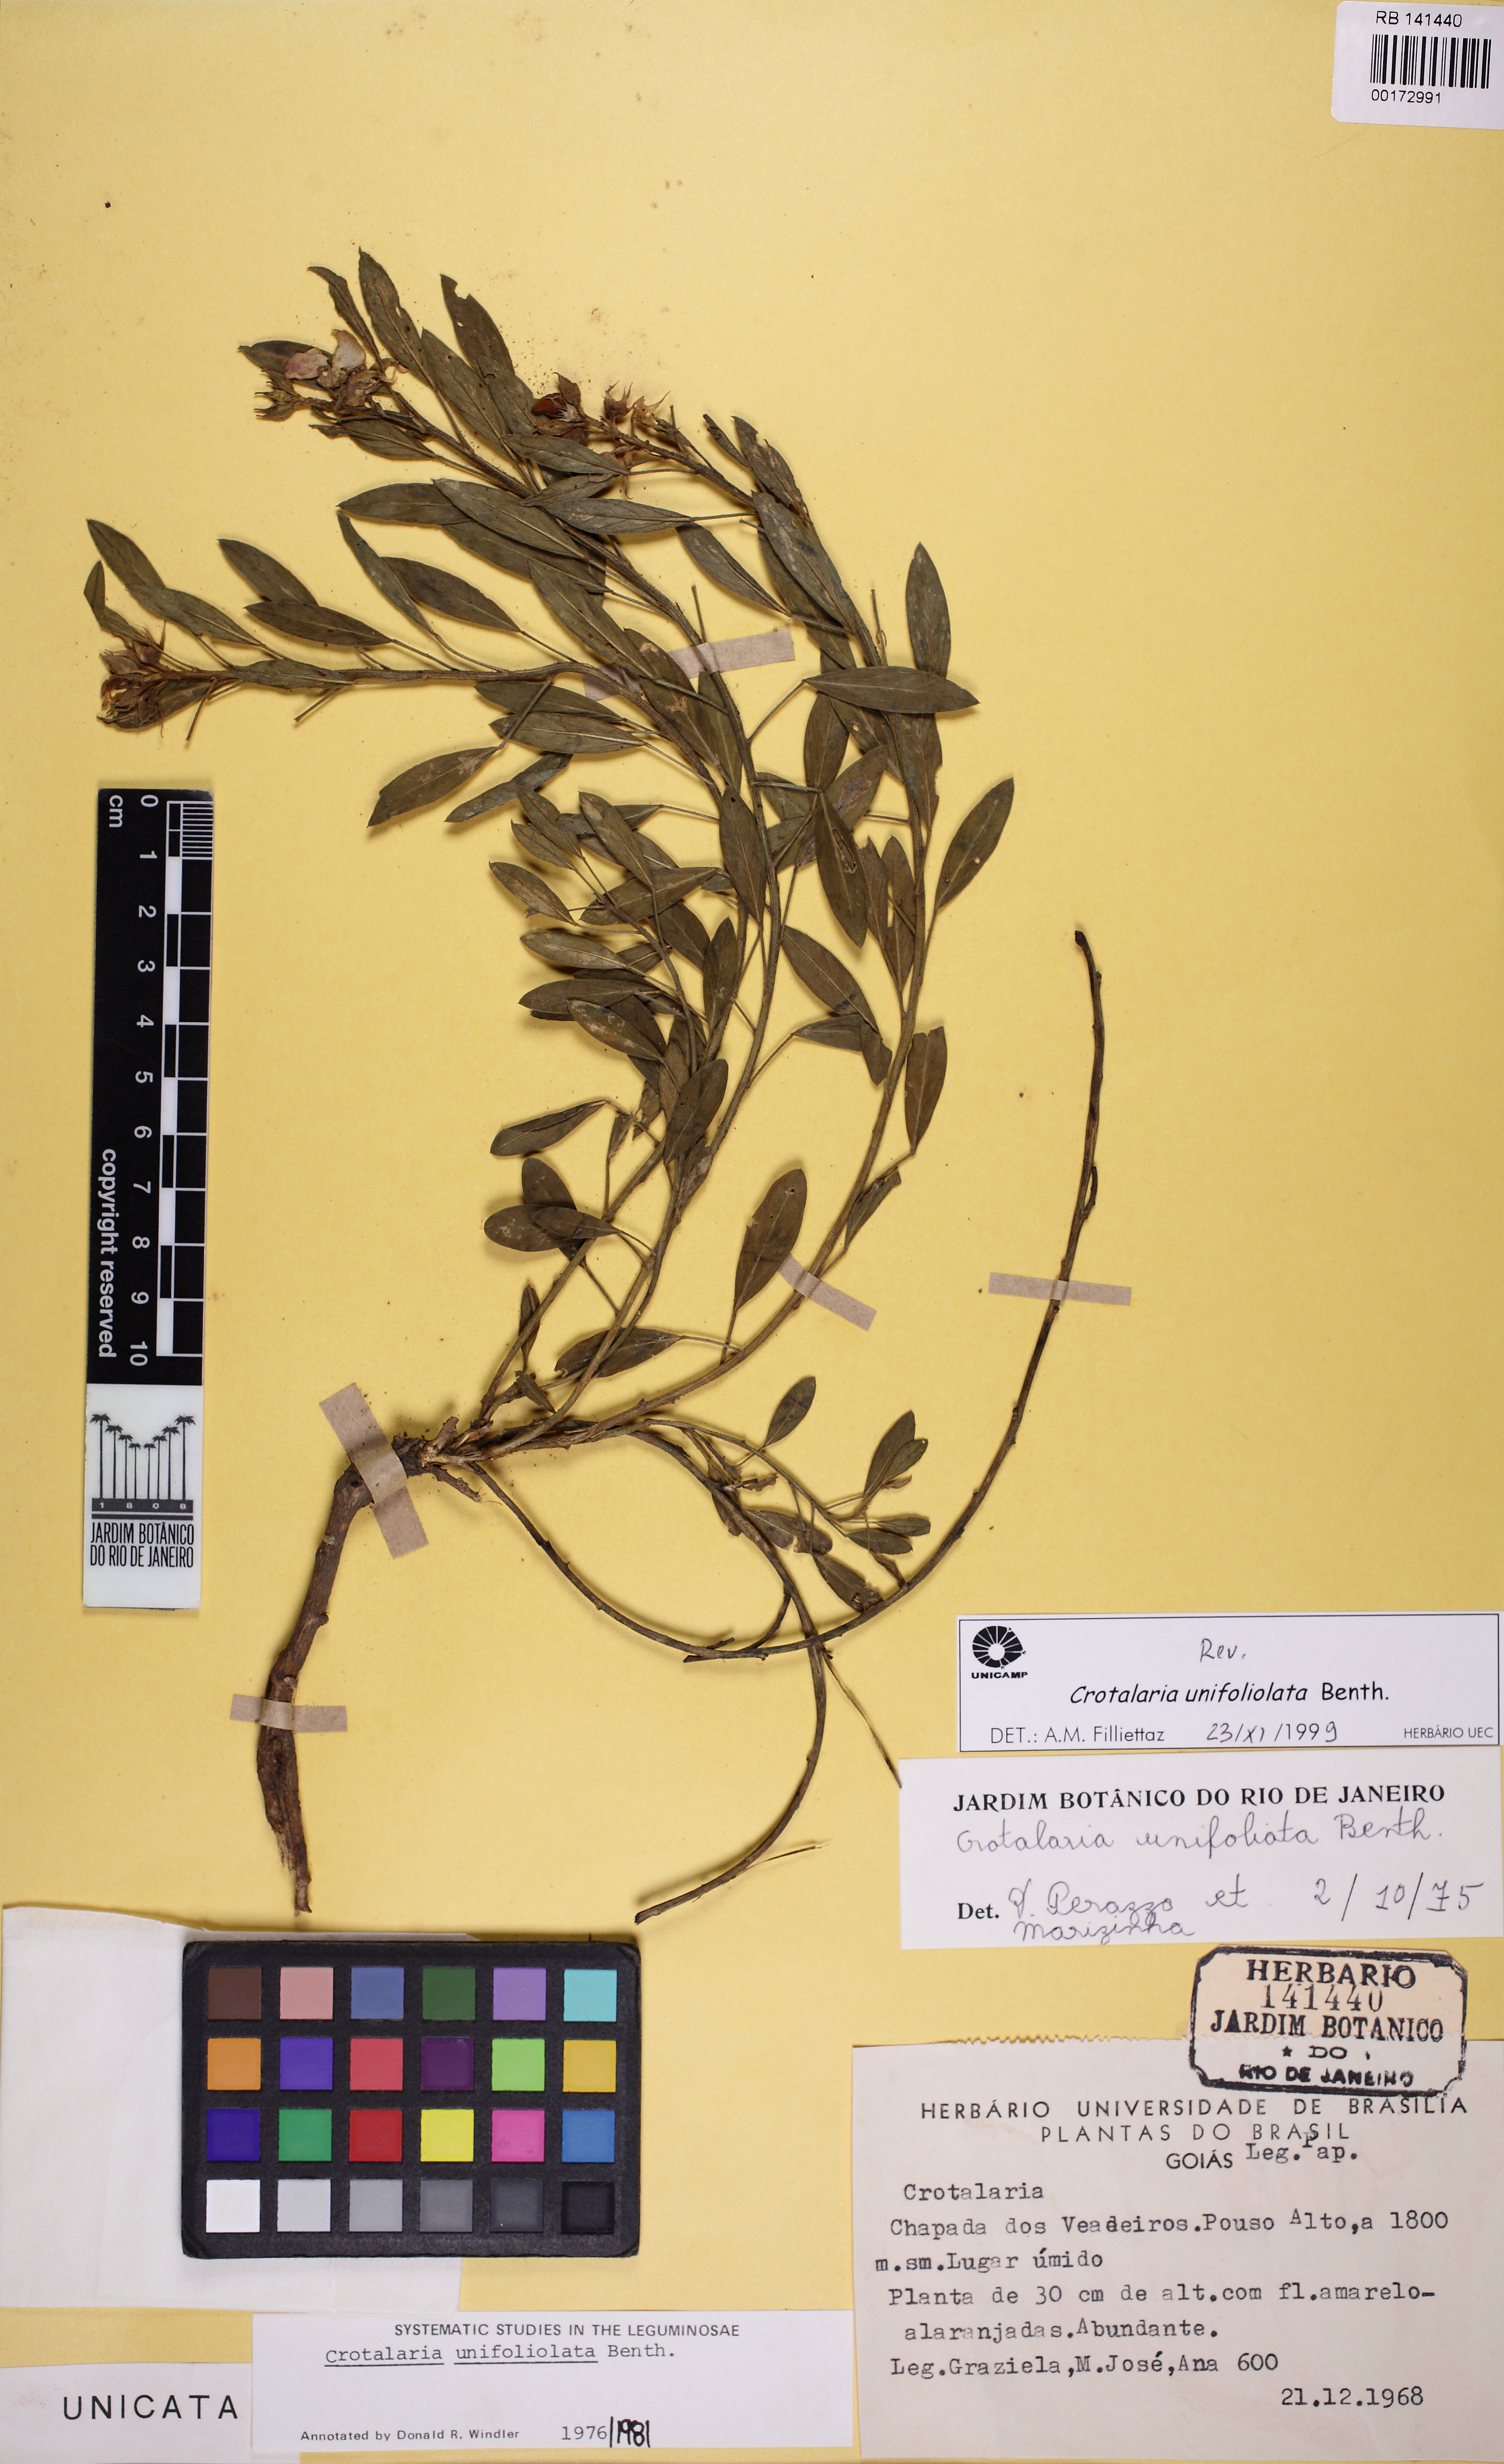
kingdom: Plantae
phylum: Tracheophyta
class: Magnoliopsida
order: Fabales
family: Fabaceae
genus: Crotalaria
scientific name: Crotalaria unifoliolata
